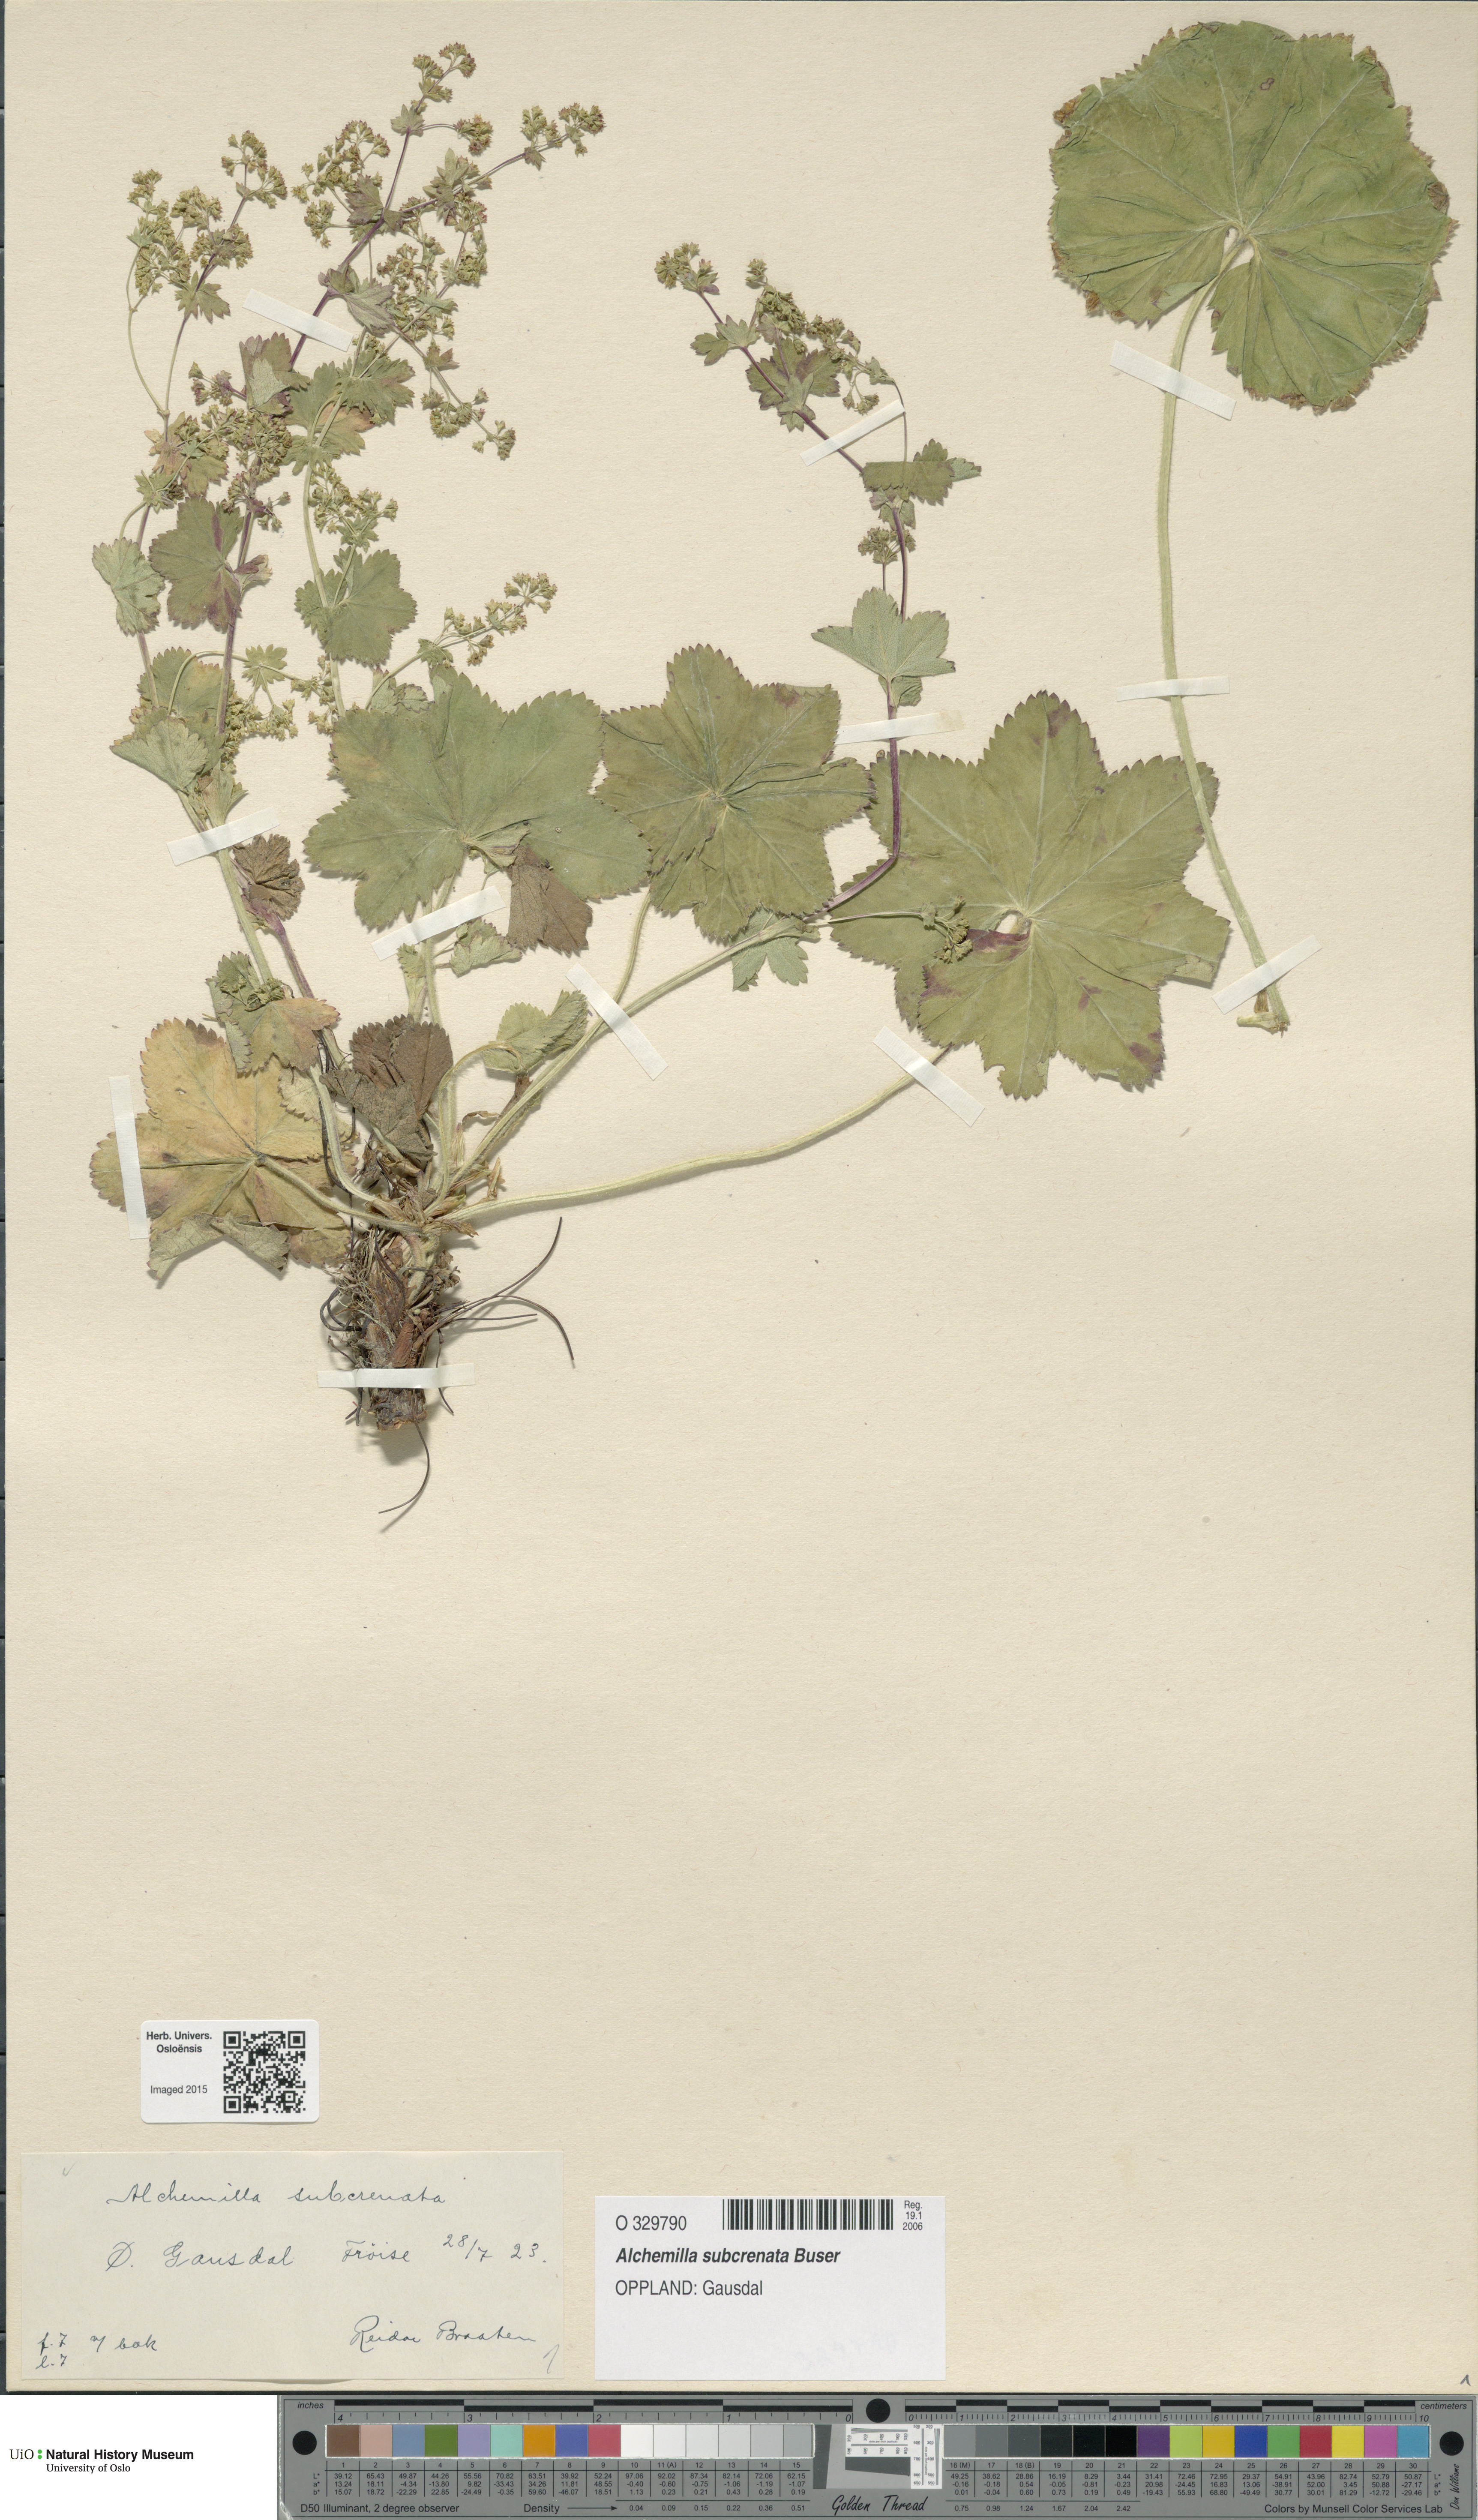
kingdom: Plantae
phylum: Tracheophyta
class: Magnoliopsida
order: Rosales
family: Rosaceae
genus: Alchemilla
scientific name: Alchemilla subcrenata
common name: Broadtooth lady's mantle
